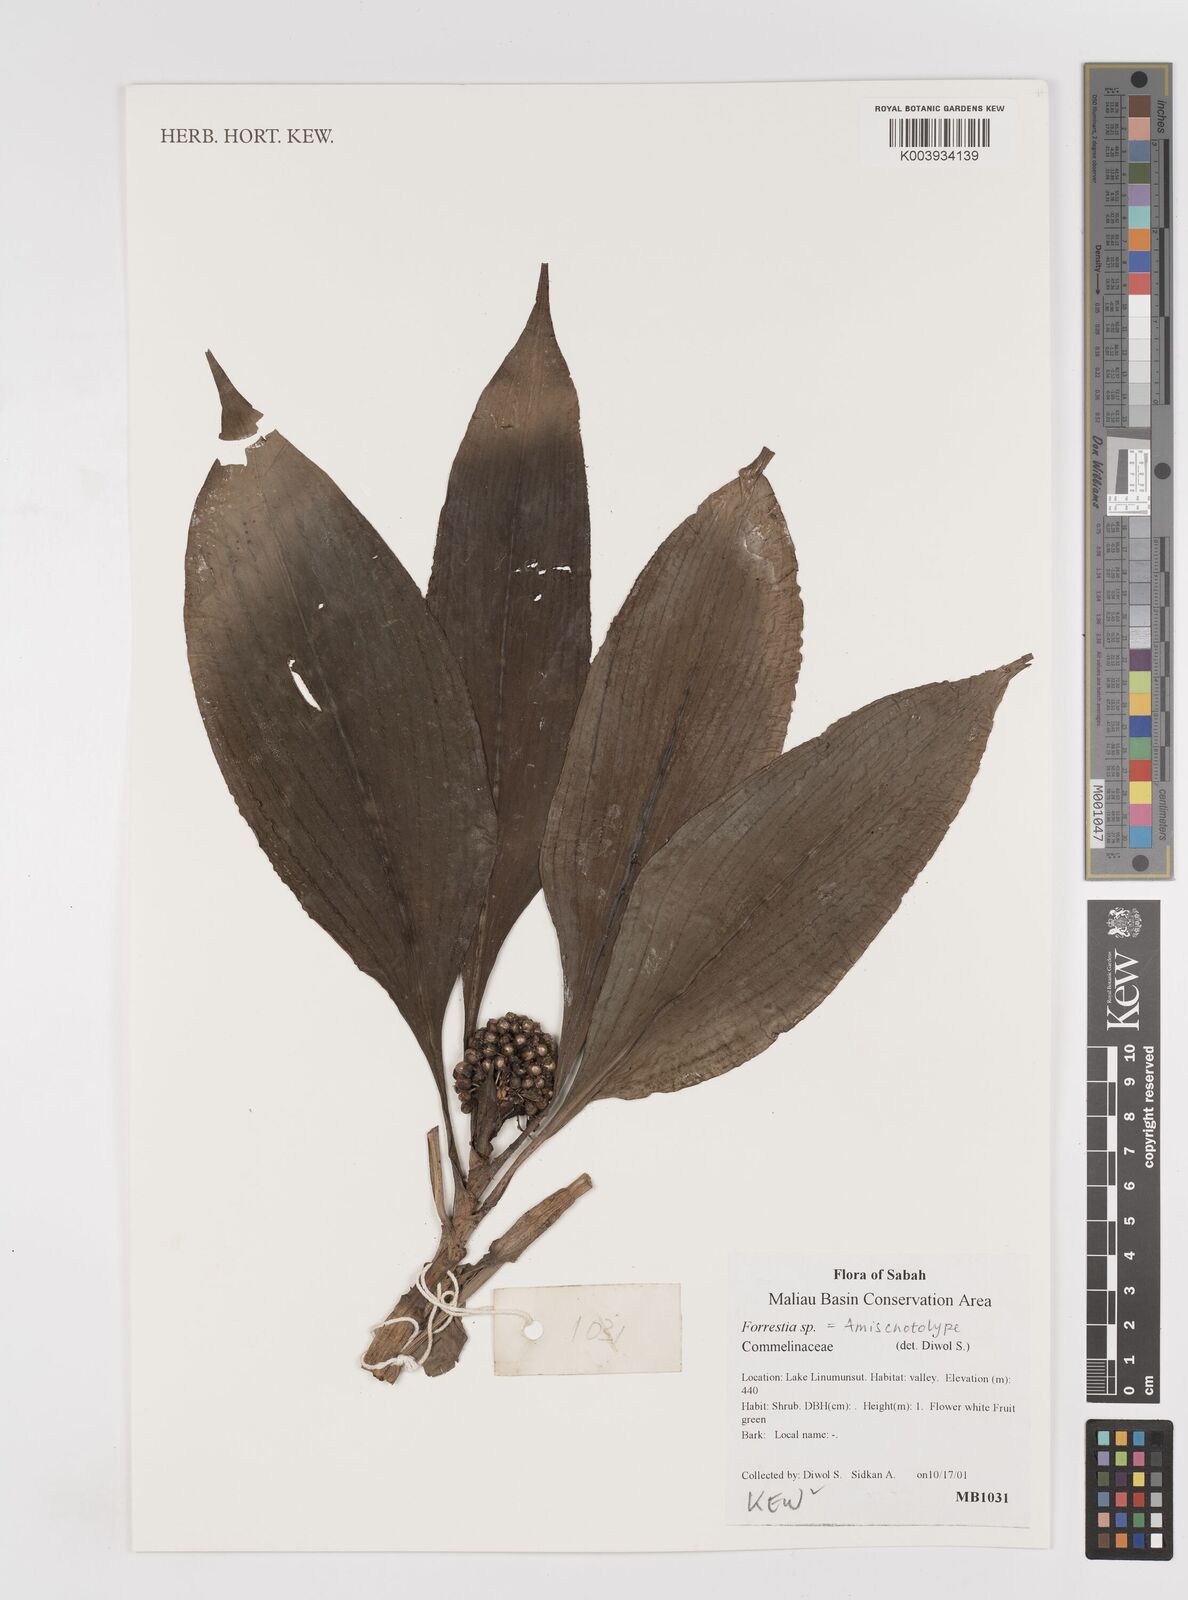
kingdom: Plantae
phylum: Tracheophyta
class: Liliopsida
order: Commelinales
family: Commelinaceae
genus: Amischotolype
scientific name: Amischotolype
